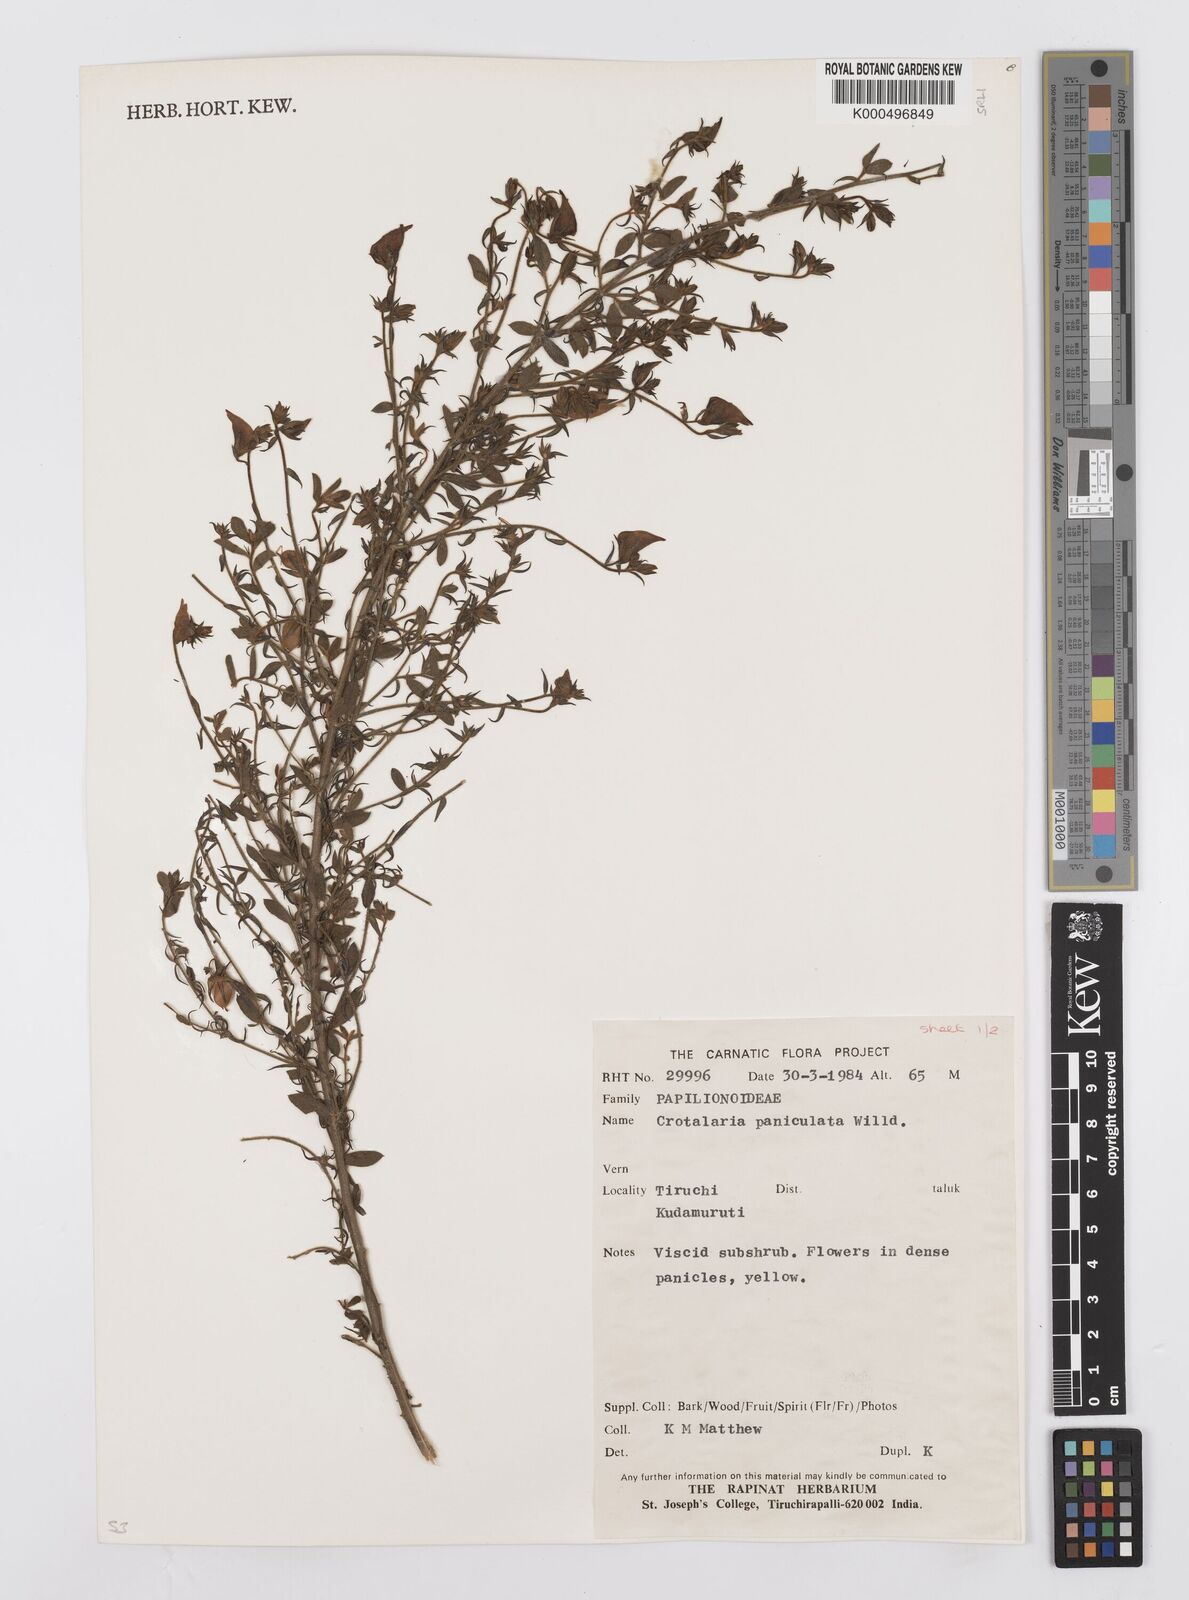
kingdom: Plantae
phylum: Tracheophyta
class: Magnoliopsida
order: Fabales
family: Fabaceae
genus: Crotalaria
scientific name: Crotalaria paniculata
